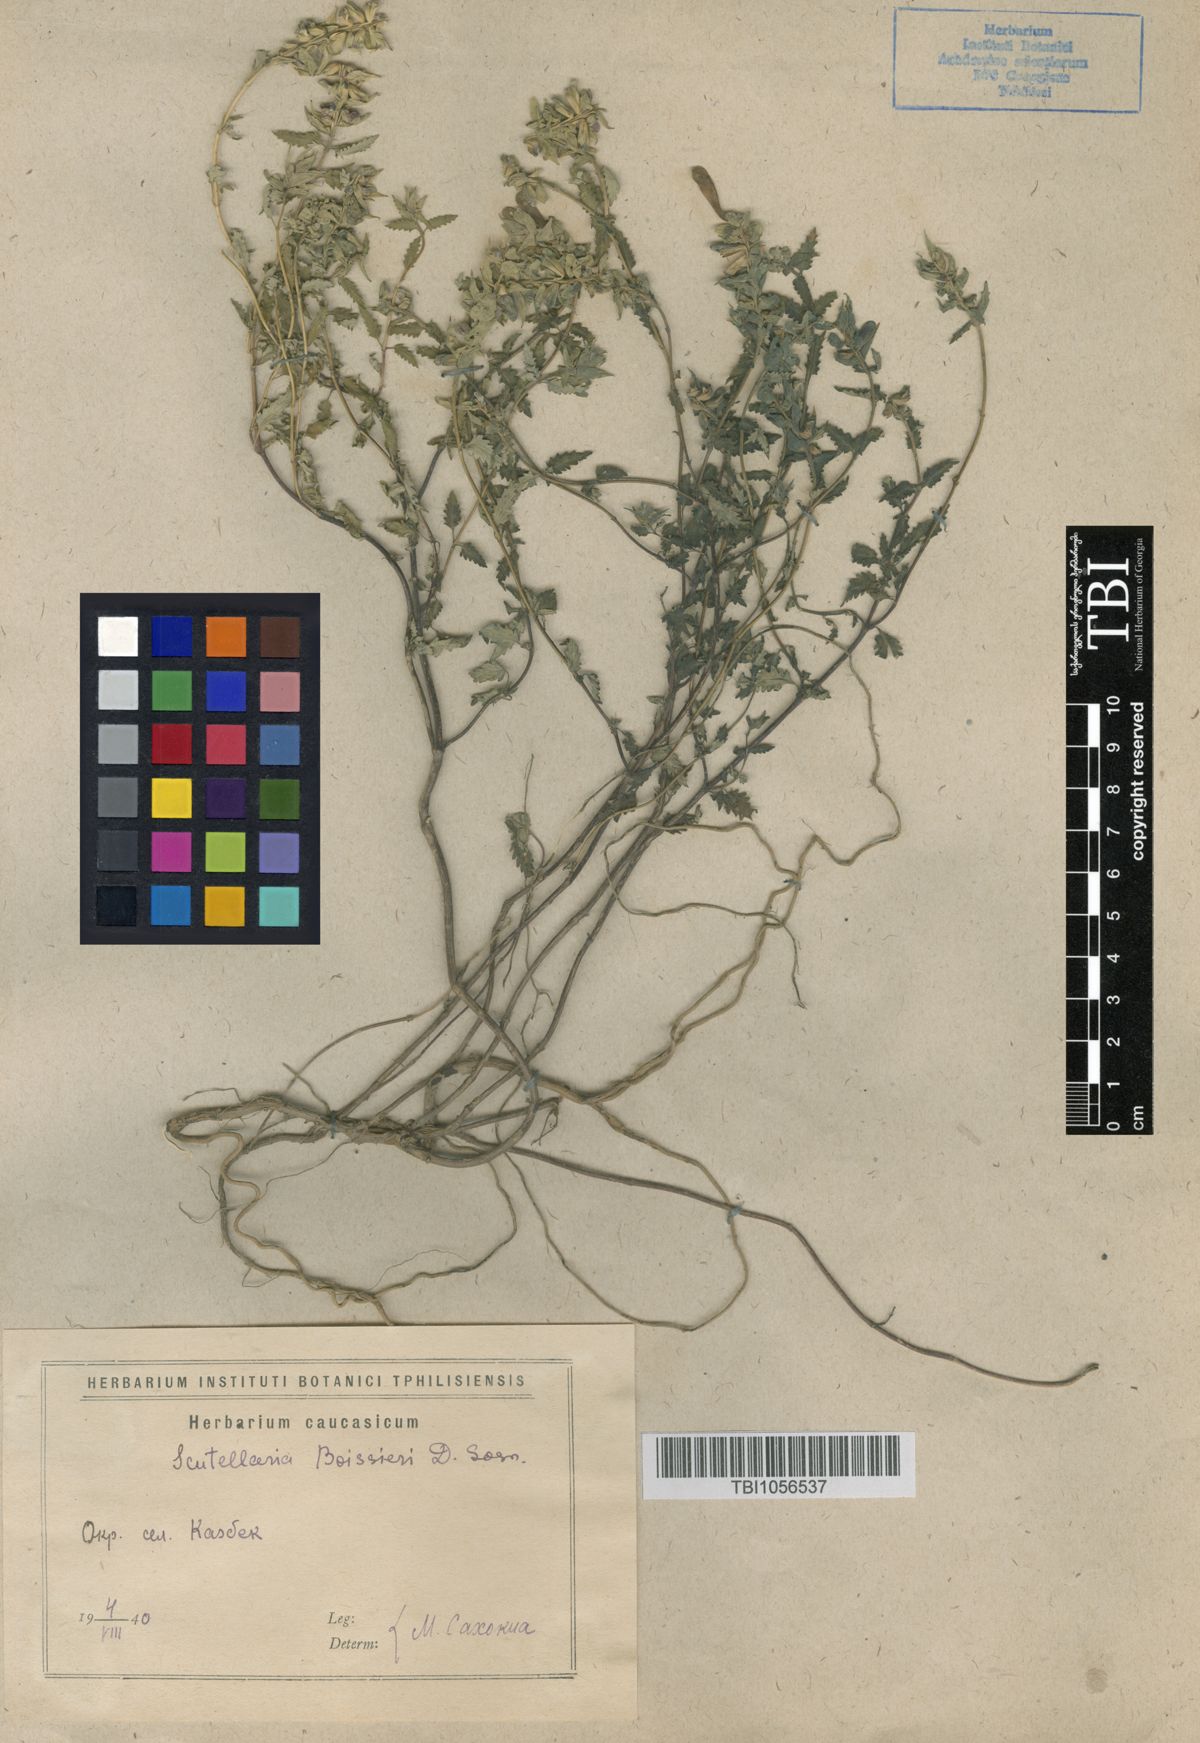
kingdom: Plantae
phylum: Tracheophyta
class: Magnoliopsida
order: Lamiales
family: Lamiaceae
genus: Scutellaria
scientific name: Scutellaria leptostegia
